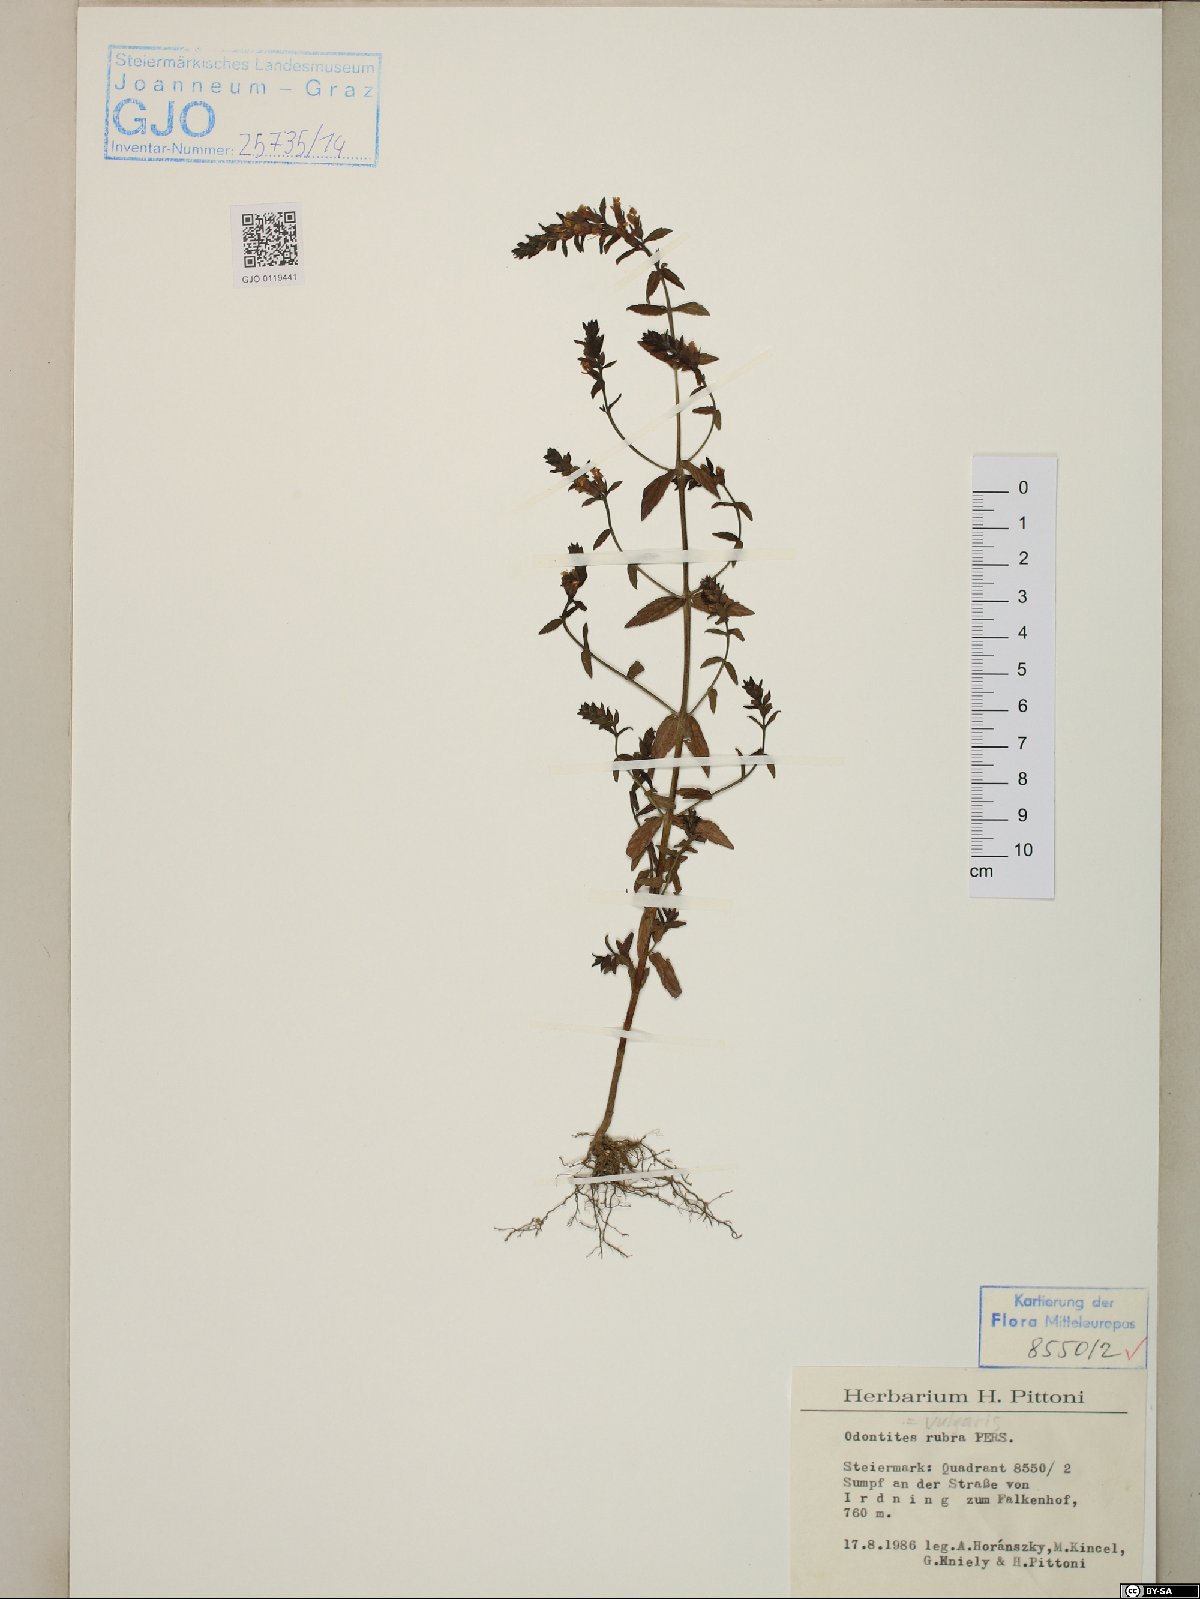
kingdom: Plantae
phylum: Tracheophyta
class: Magnoliopsida
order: Lamiales
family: Orobanchaceae
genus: Odontites
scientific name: Odontites ruber
